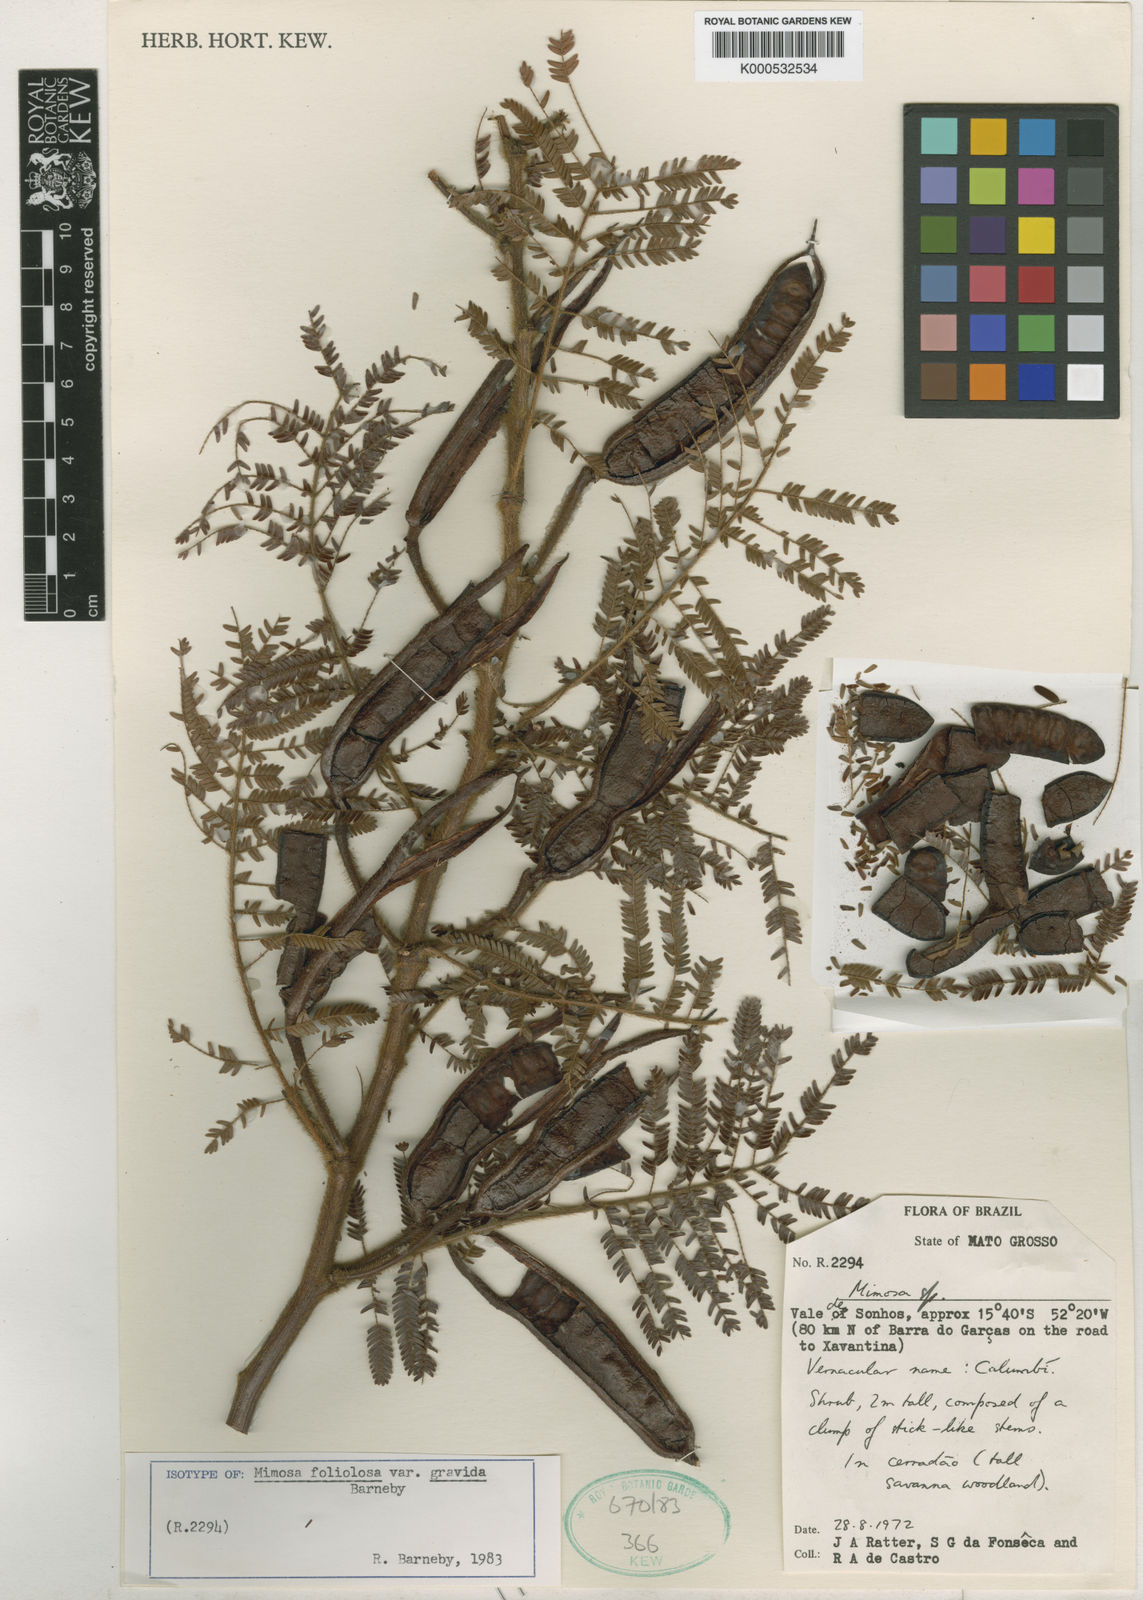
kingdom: Plantae
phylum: Tracheophyta
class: Magnoliopsida
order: Fabales
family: Fabaceae
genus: Mimosa
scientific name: Mimosa foliolosa
